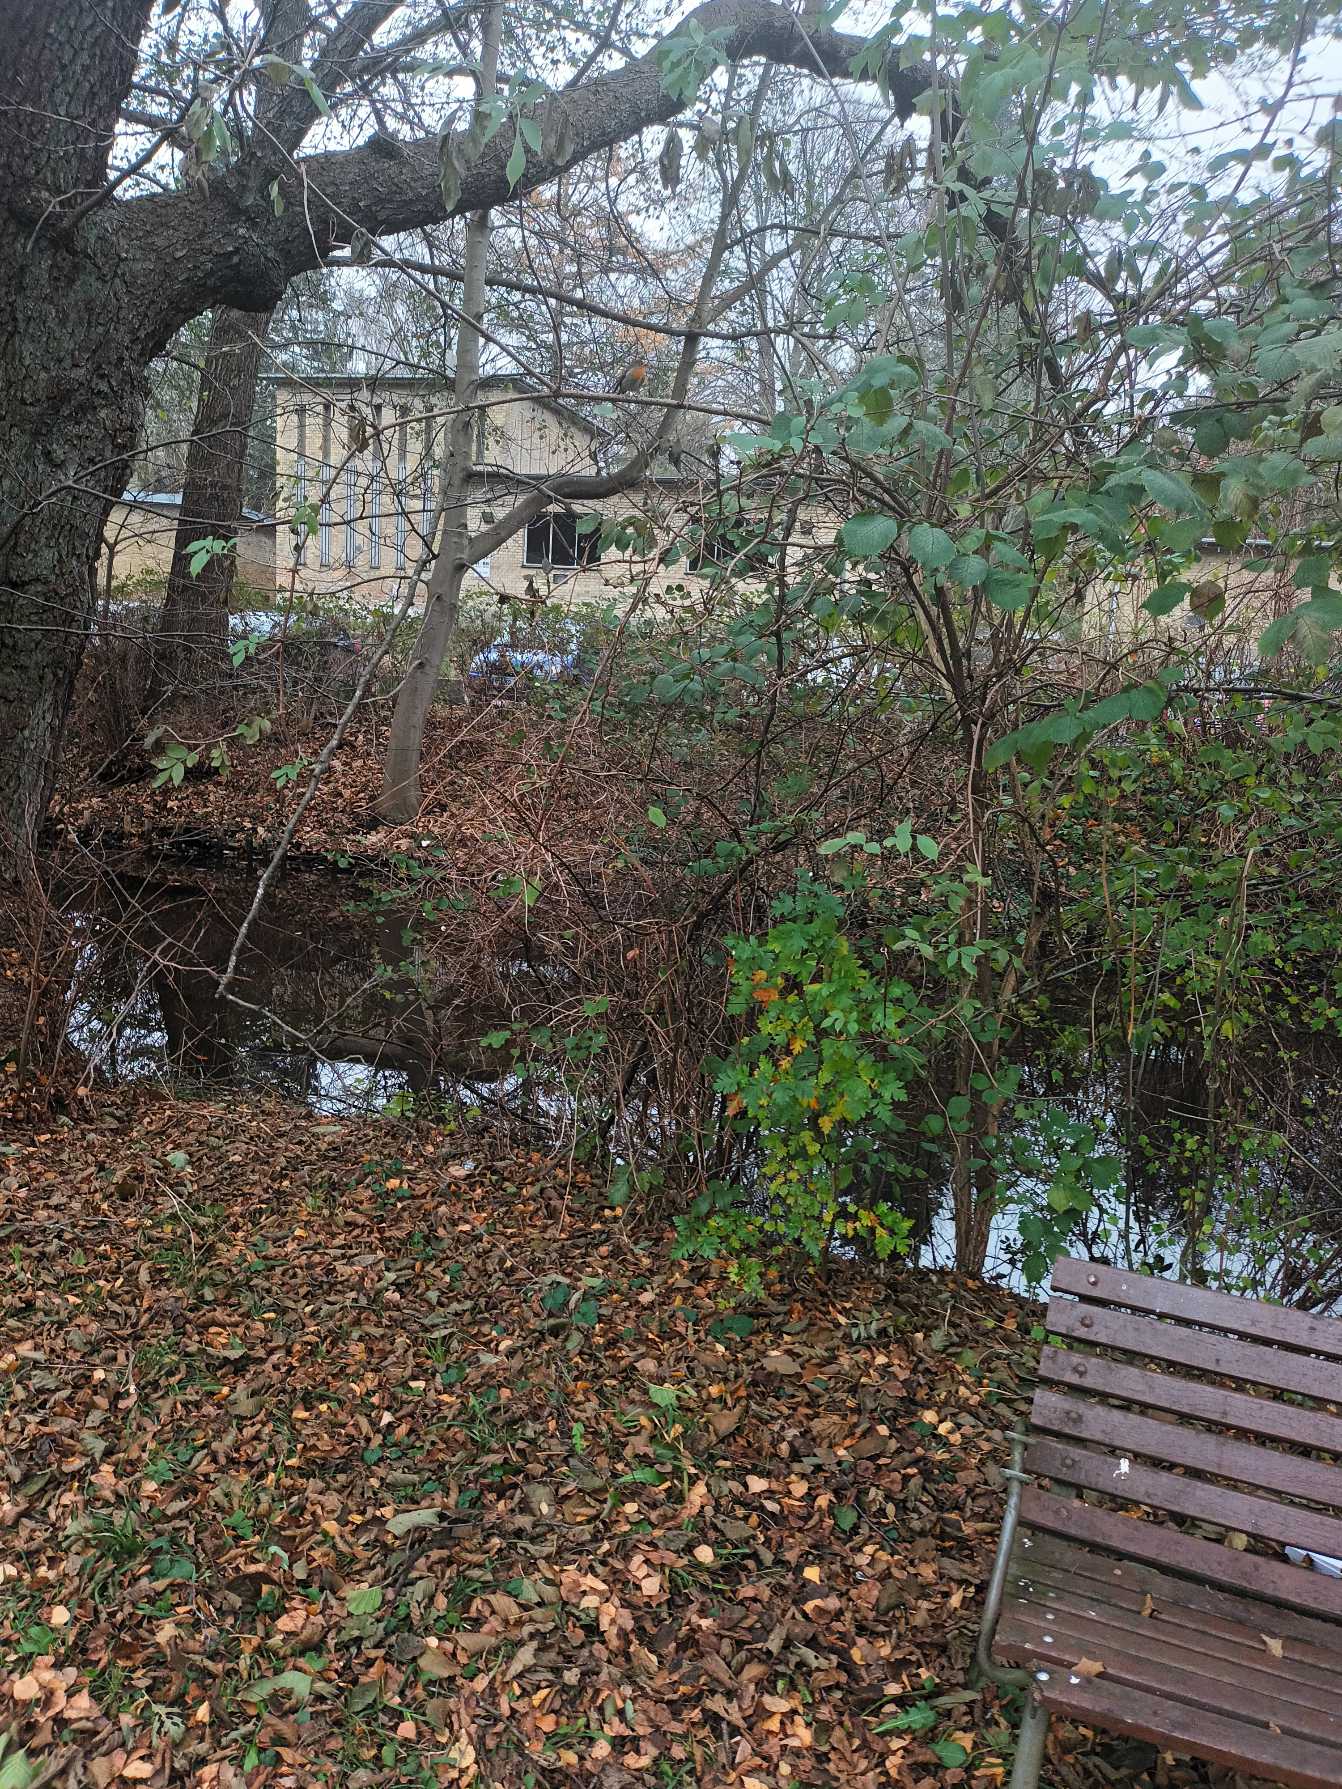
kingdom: Animalia
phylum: Chordata
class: Aves
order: Passeriformes
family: Muscicapidae
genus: Erithacus
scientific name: Erithacus rubecula
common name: Rødhals/rødkælk
